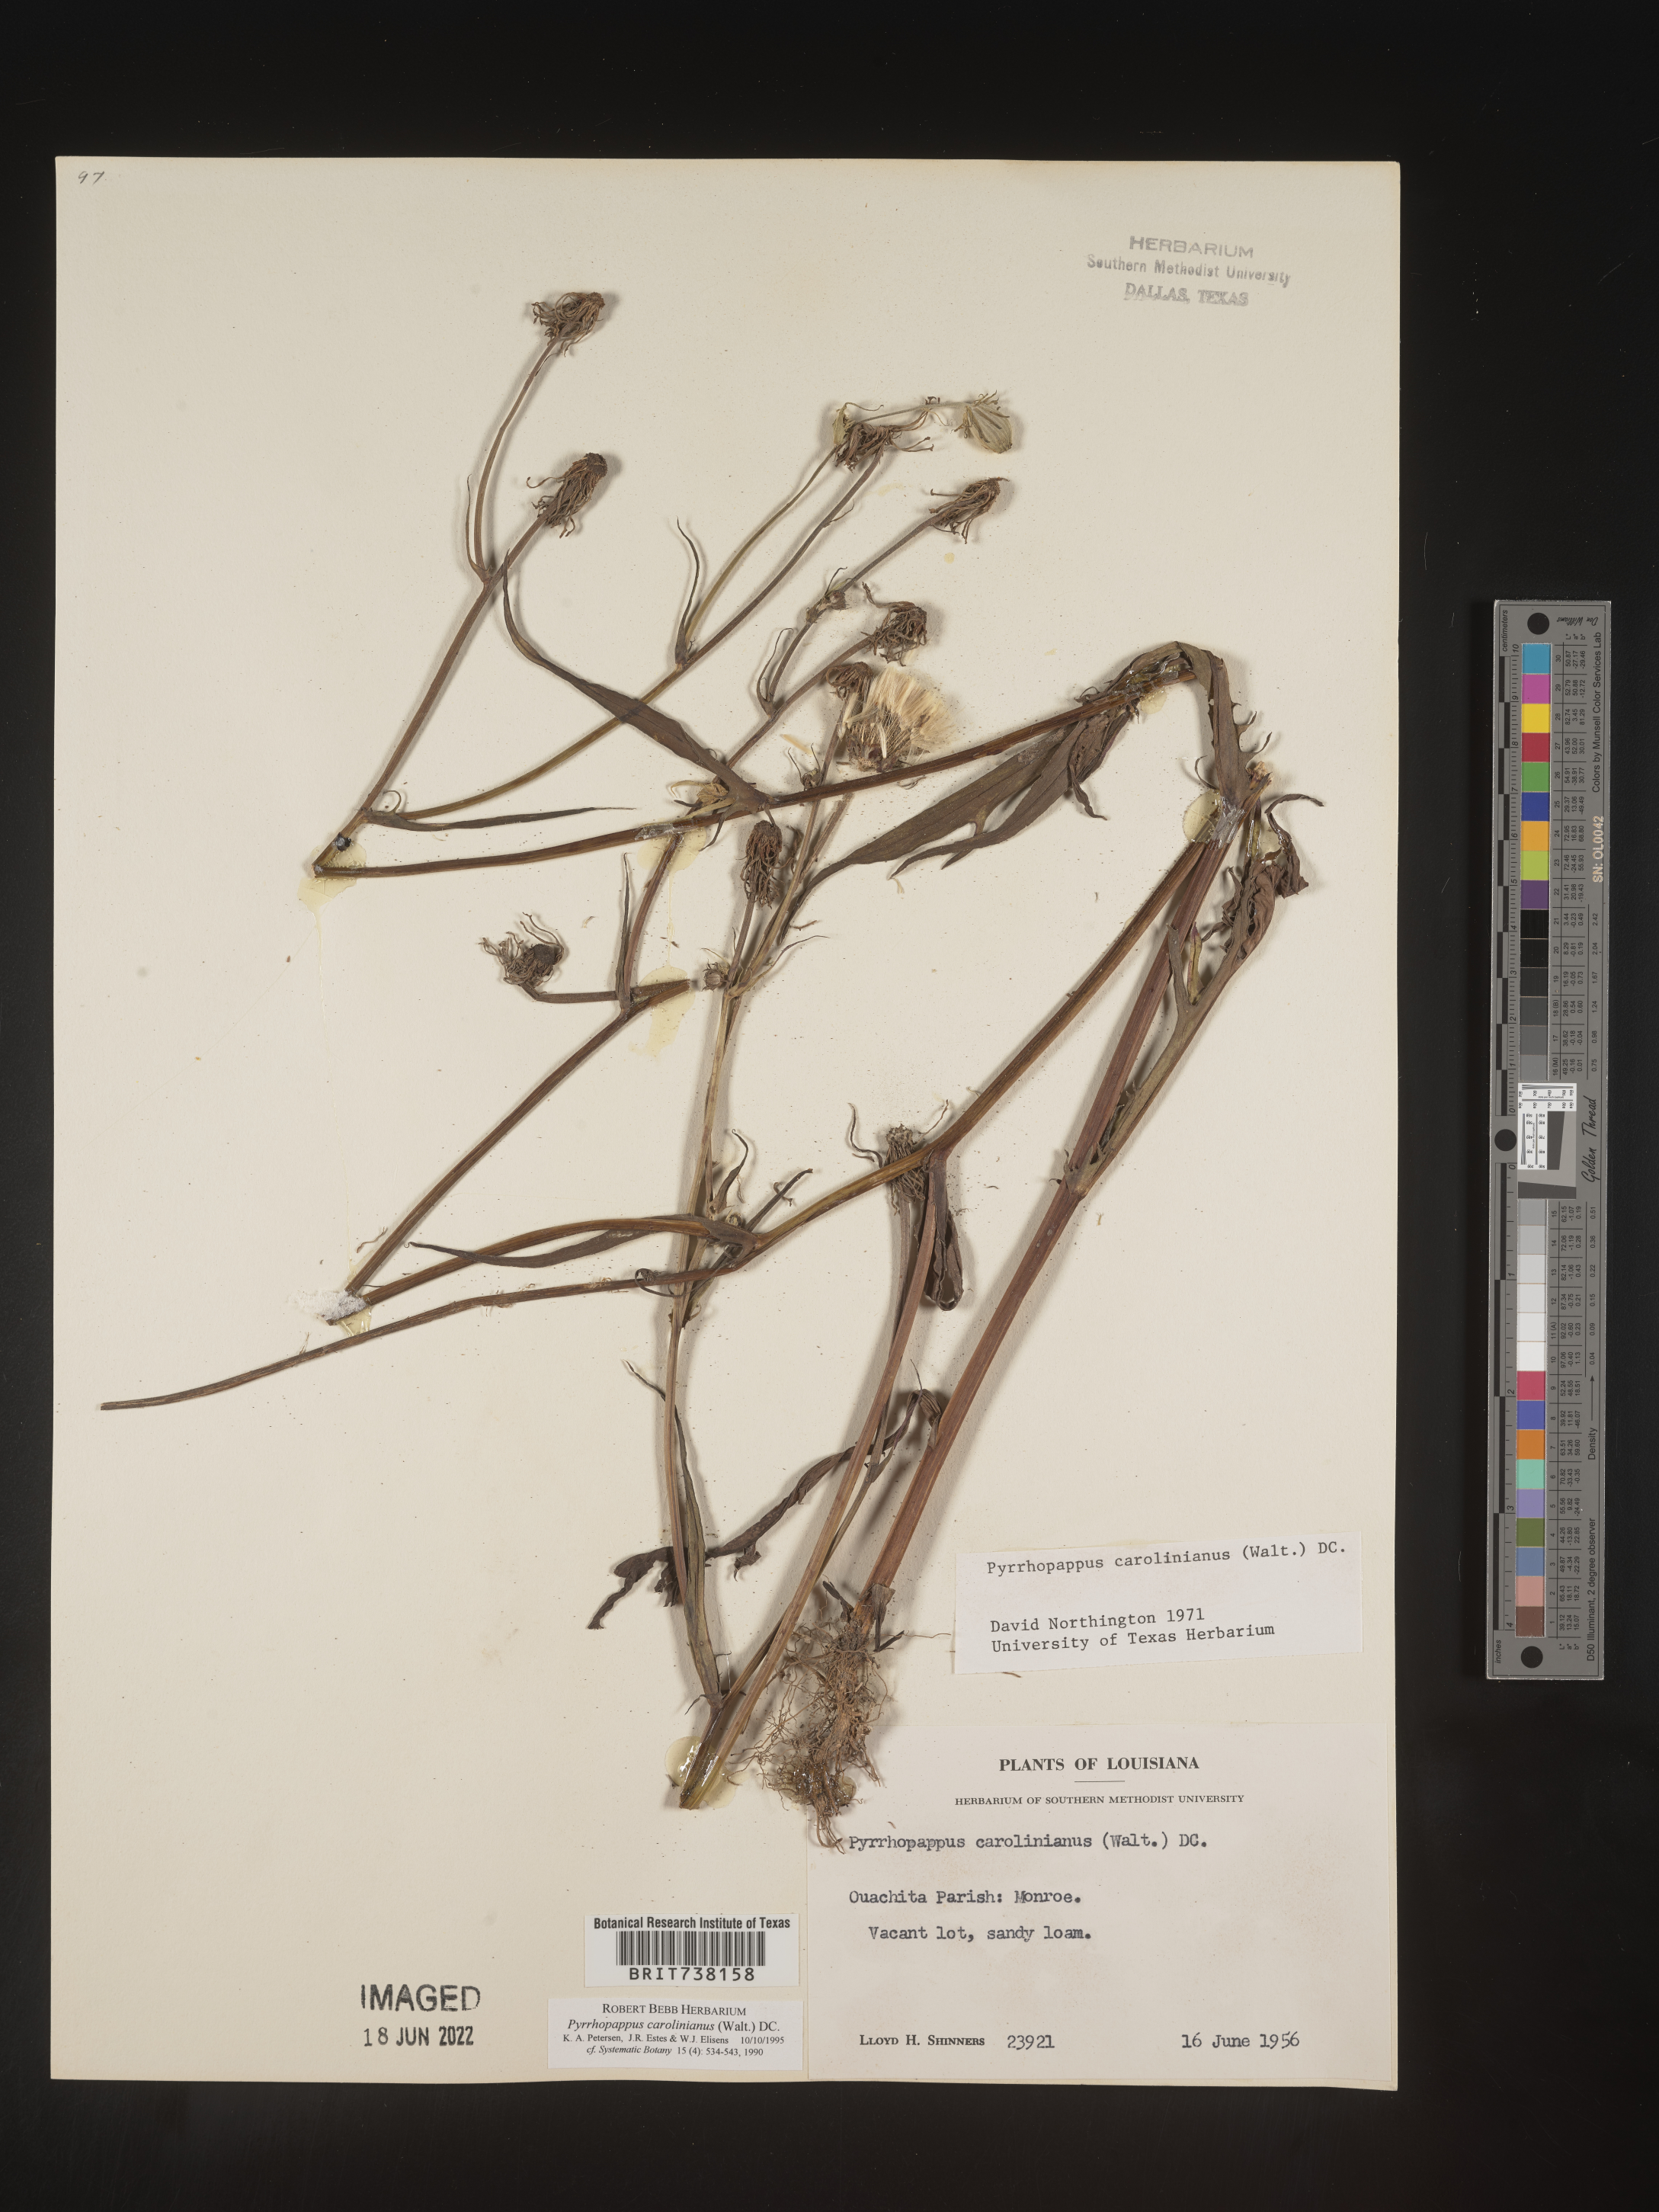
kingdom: Plantae
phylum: Tracheophyta
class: Magnoliopsida
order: Asterales
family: Asteraceae
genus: Pyrrhopappus
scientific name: Pyrrhopappus carolinianus
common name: Carolina desert-chicory
